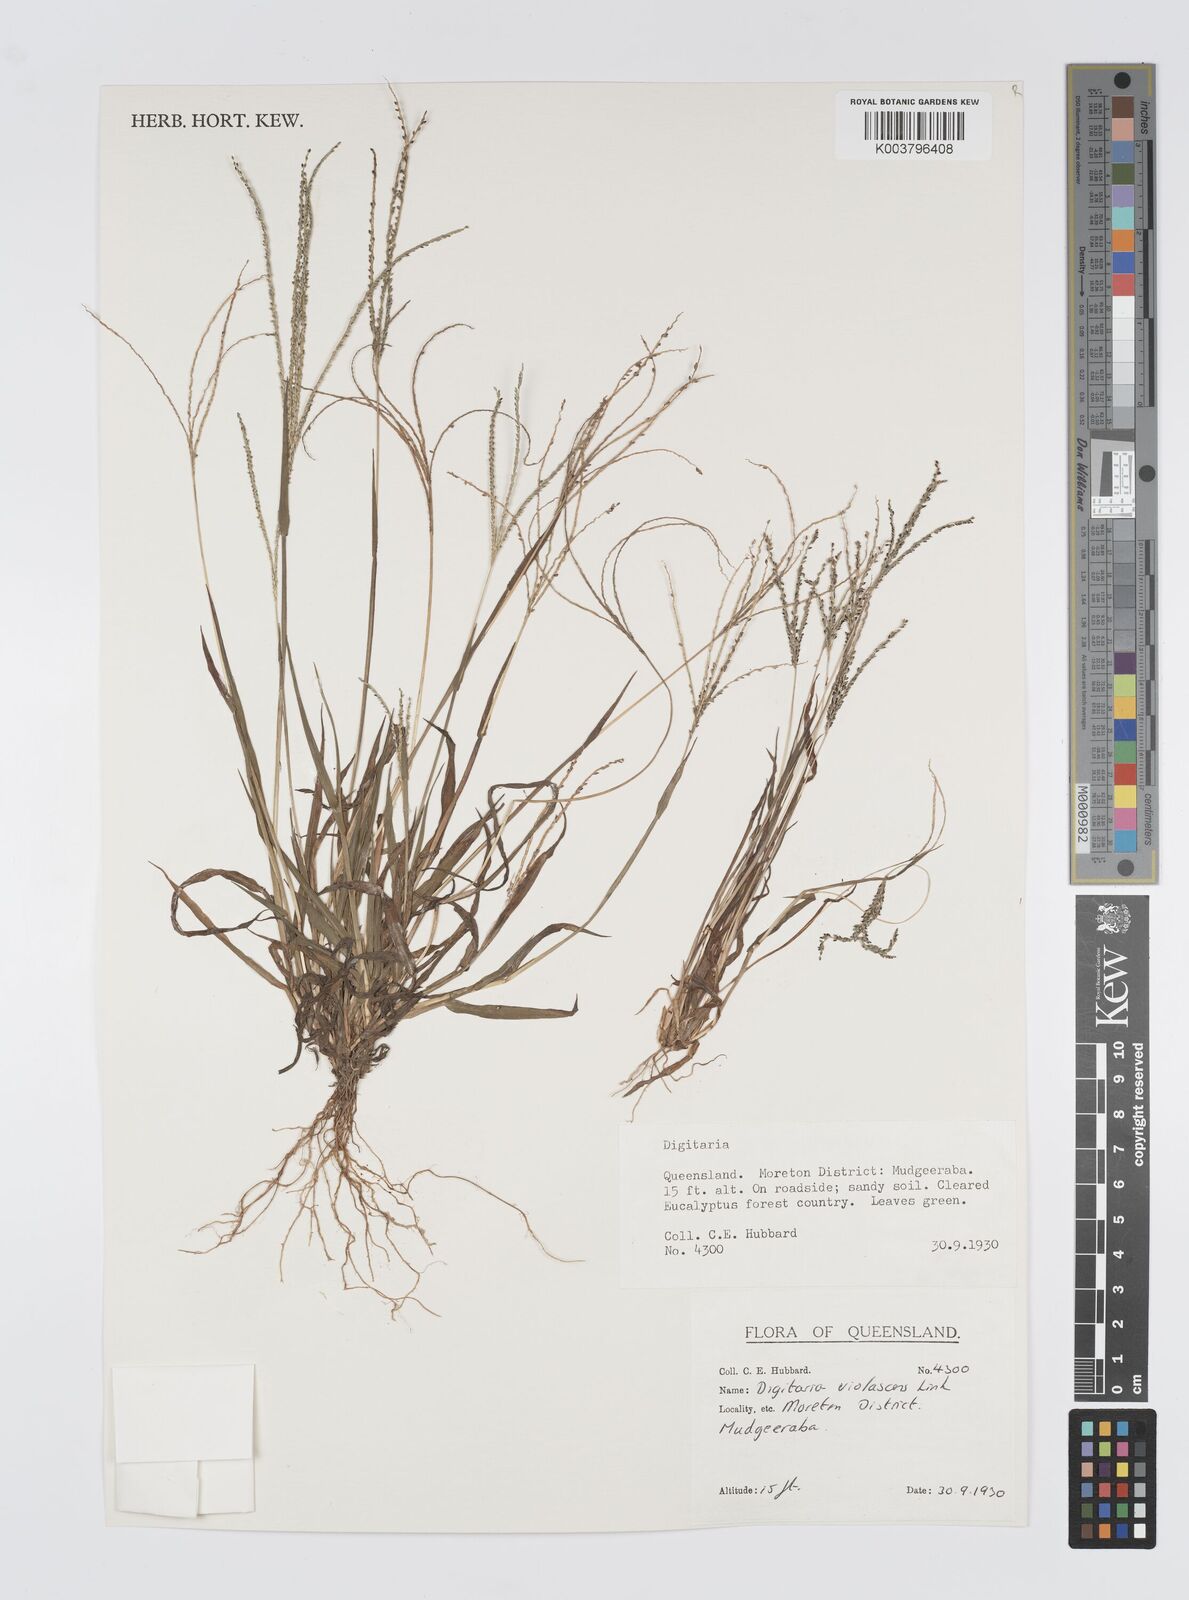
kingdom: Plantae
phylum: Tracheophyta
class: Liliopsida
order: Poales
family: Poaceae
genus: Digitaria
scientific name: Digitaria violascens
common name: Violet crabgrass
